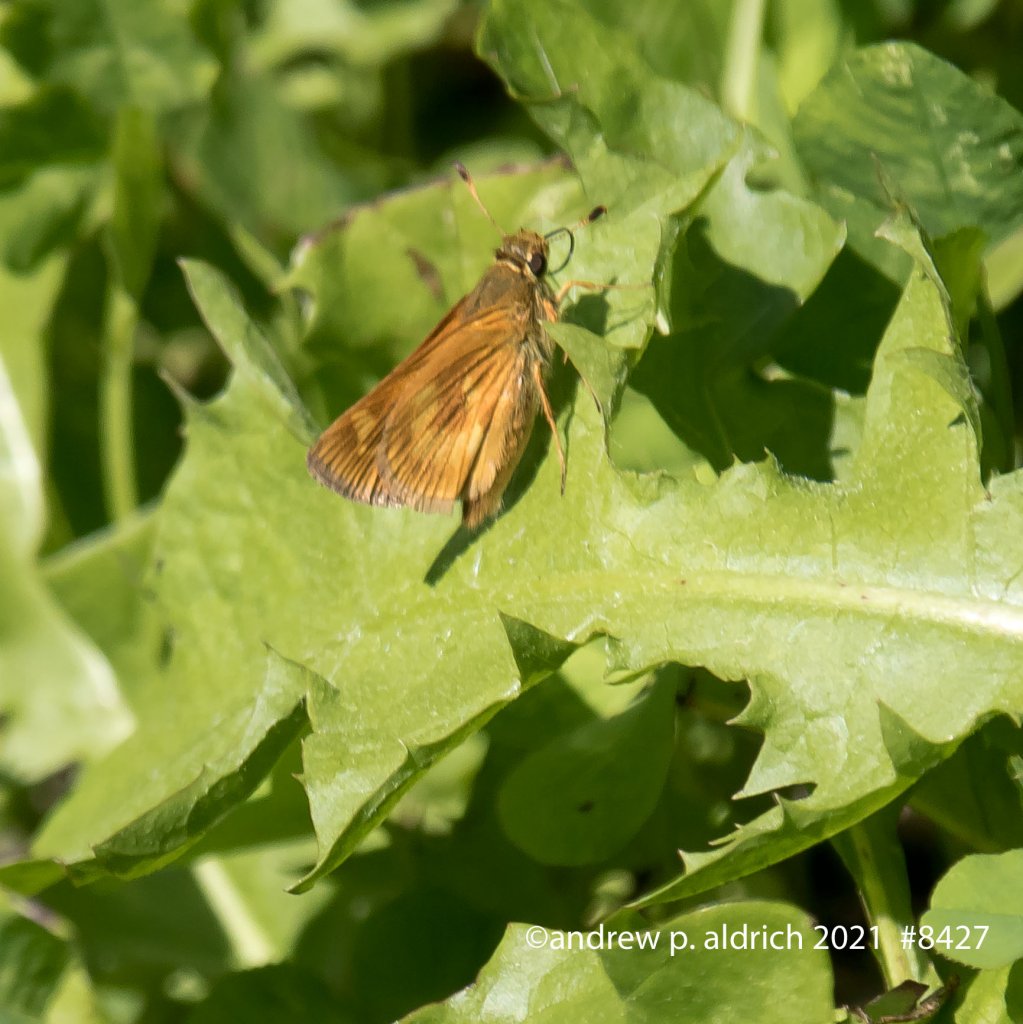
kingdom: Animalia
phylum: Arthropoda
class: Insecta
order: Lepidoptera
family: Hesperiidae
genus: Polites
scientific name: Polites
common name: Long Dash Skipper
